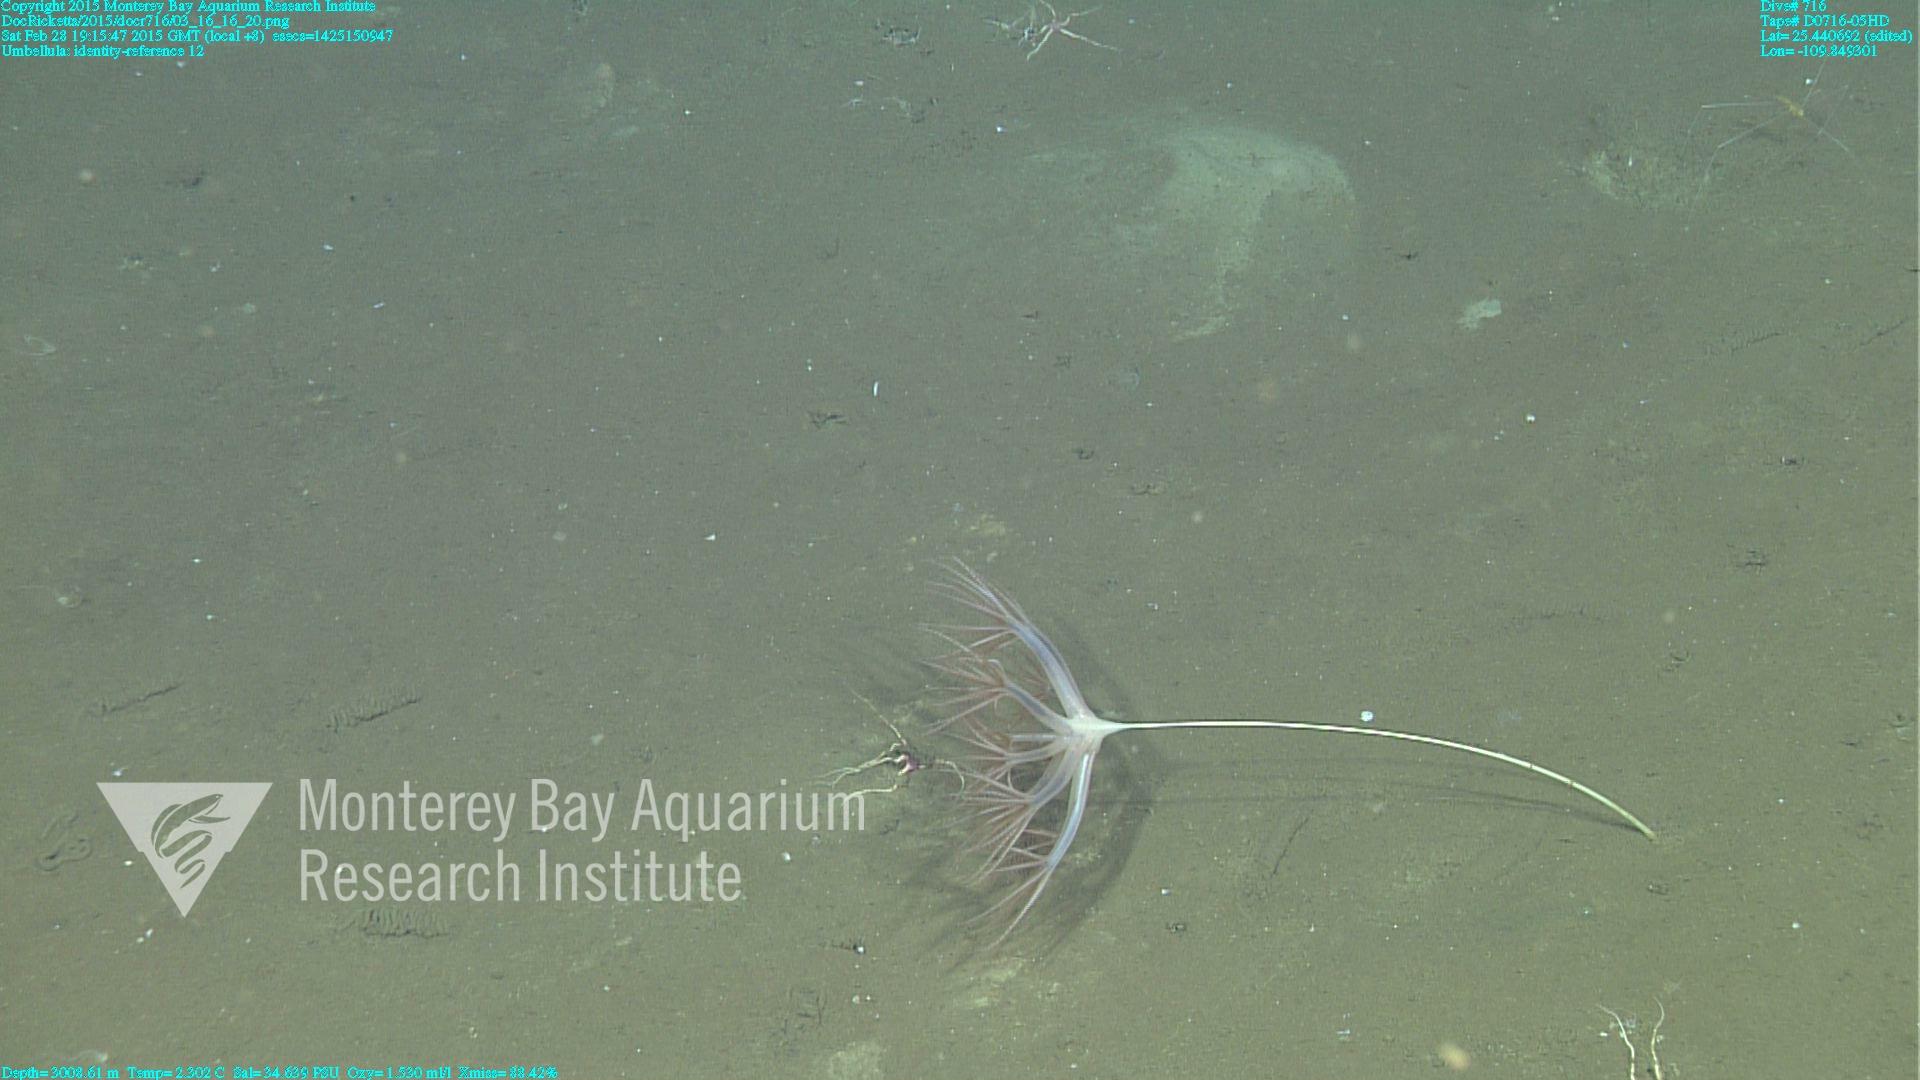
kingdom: Animalia
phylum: Cnidaria
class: Anthozoa
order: Scleralcyonacea
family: Umbellulidae
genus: Umbellula
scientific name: Umbellula
